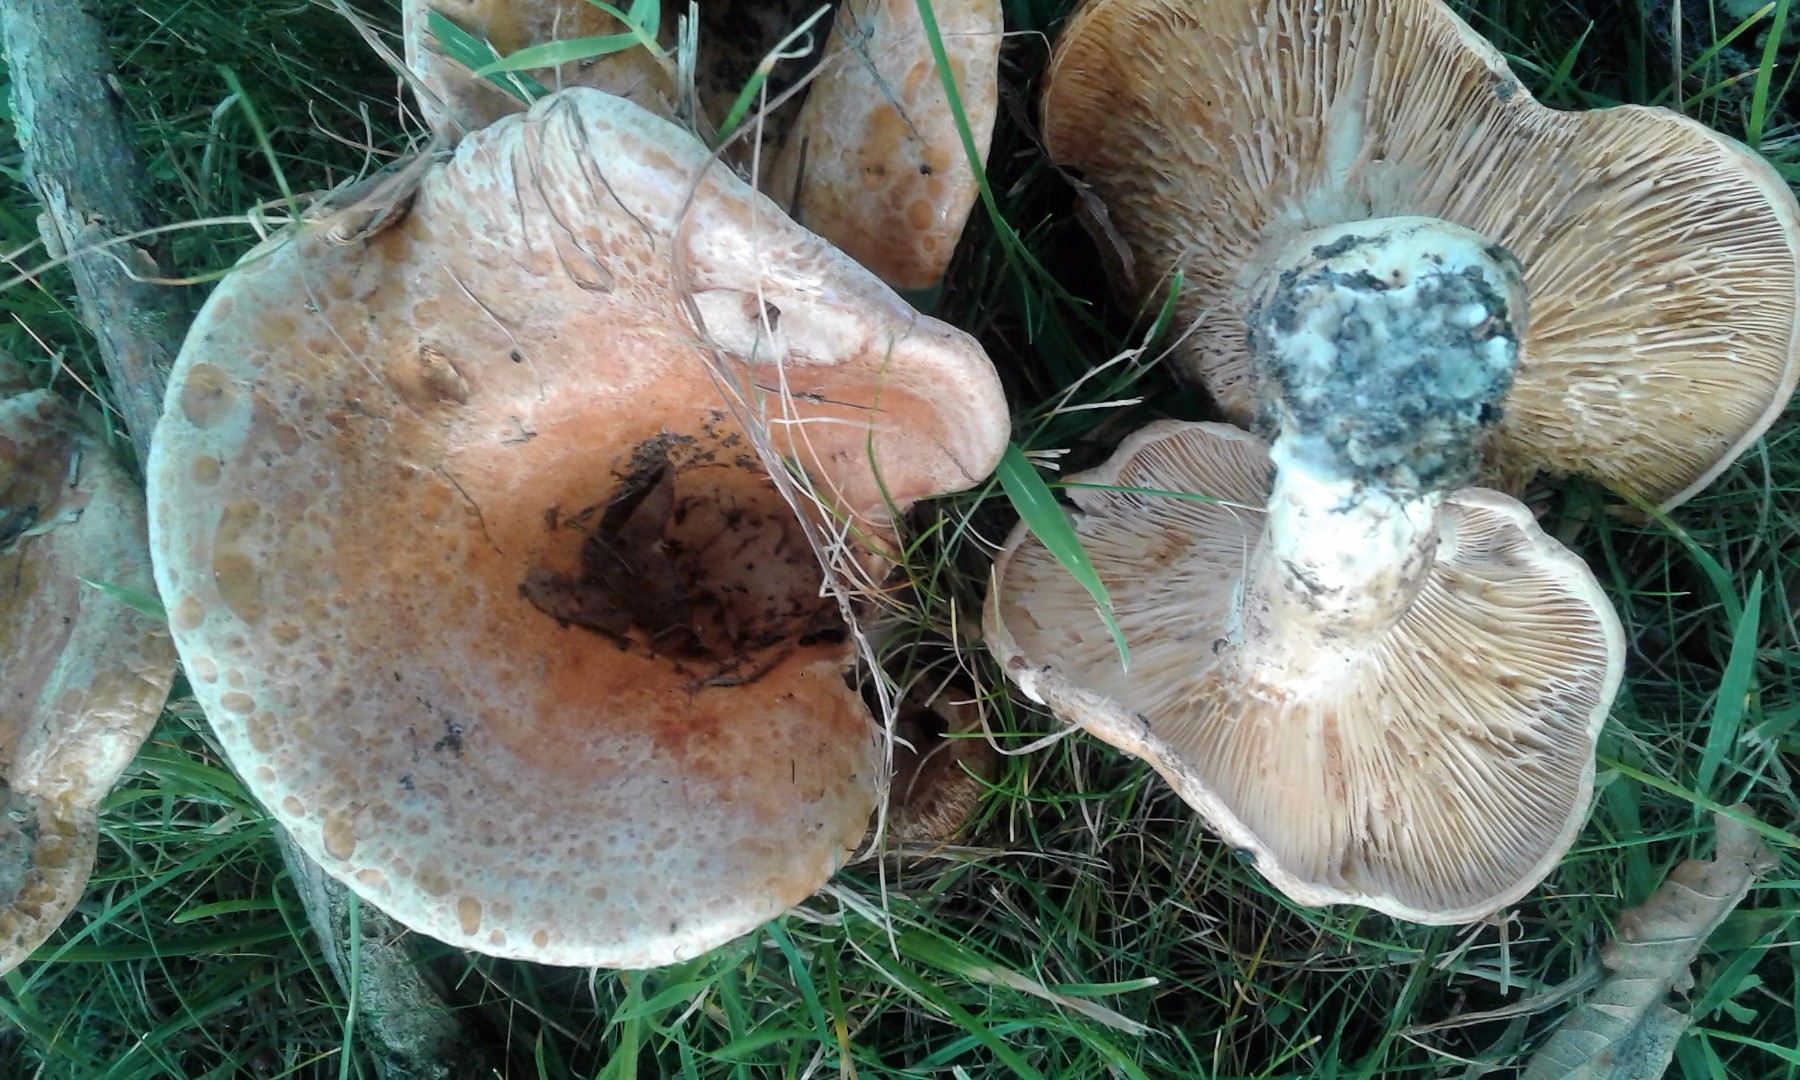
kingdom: Fungi
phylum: Basidiomycota
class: Agaricomycetes
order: Russulales
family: Russulaceae
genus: Lactarius
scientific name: Lactarius acerrimus
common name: brændende mælkehat
